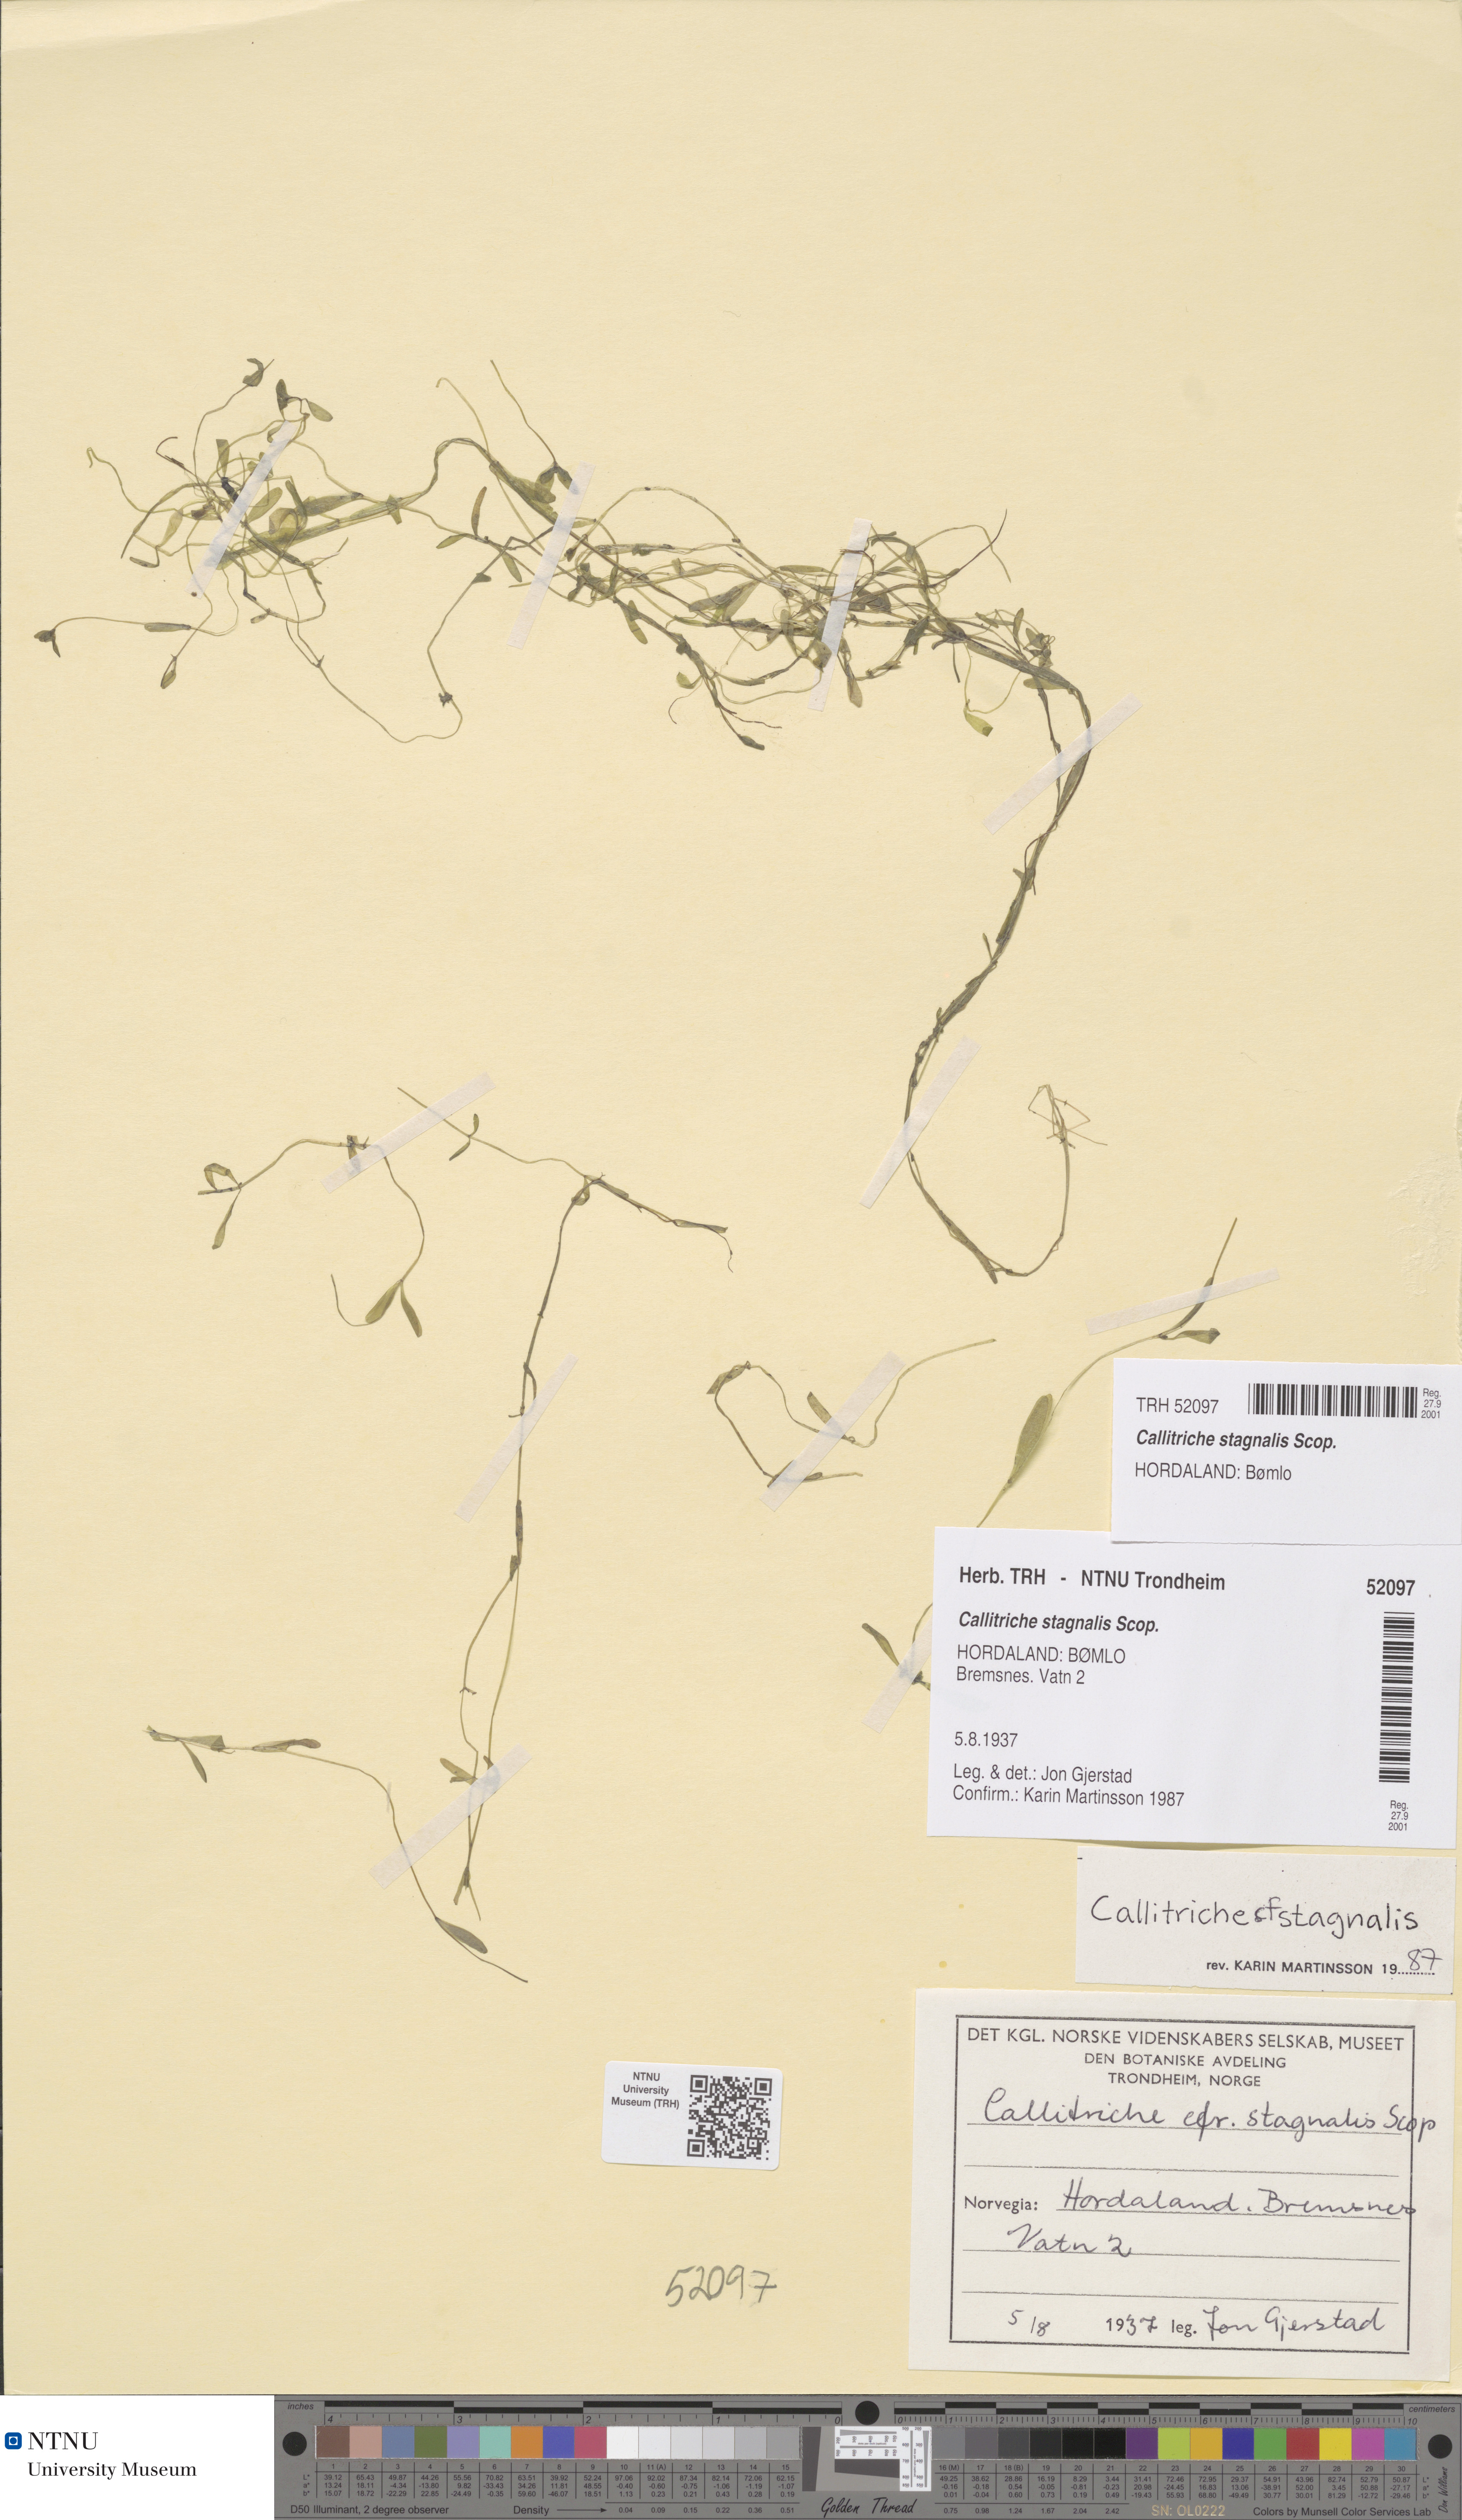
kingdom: Plantae
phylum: Tracheophyta
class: Magnoliopsida
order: Lamiales
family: Plantaginaceae
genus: Callitriche
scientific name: Callitriche stagnalis
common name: Common water-starwort
